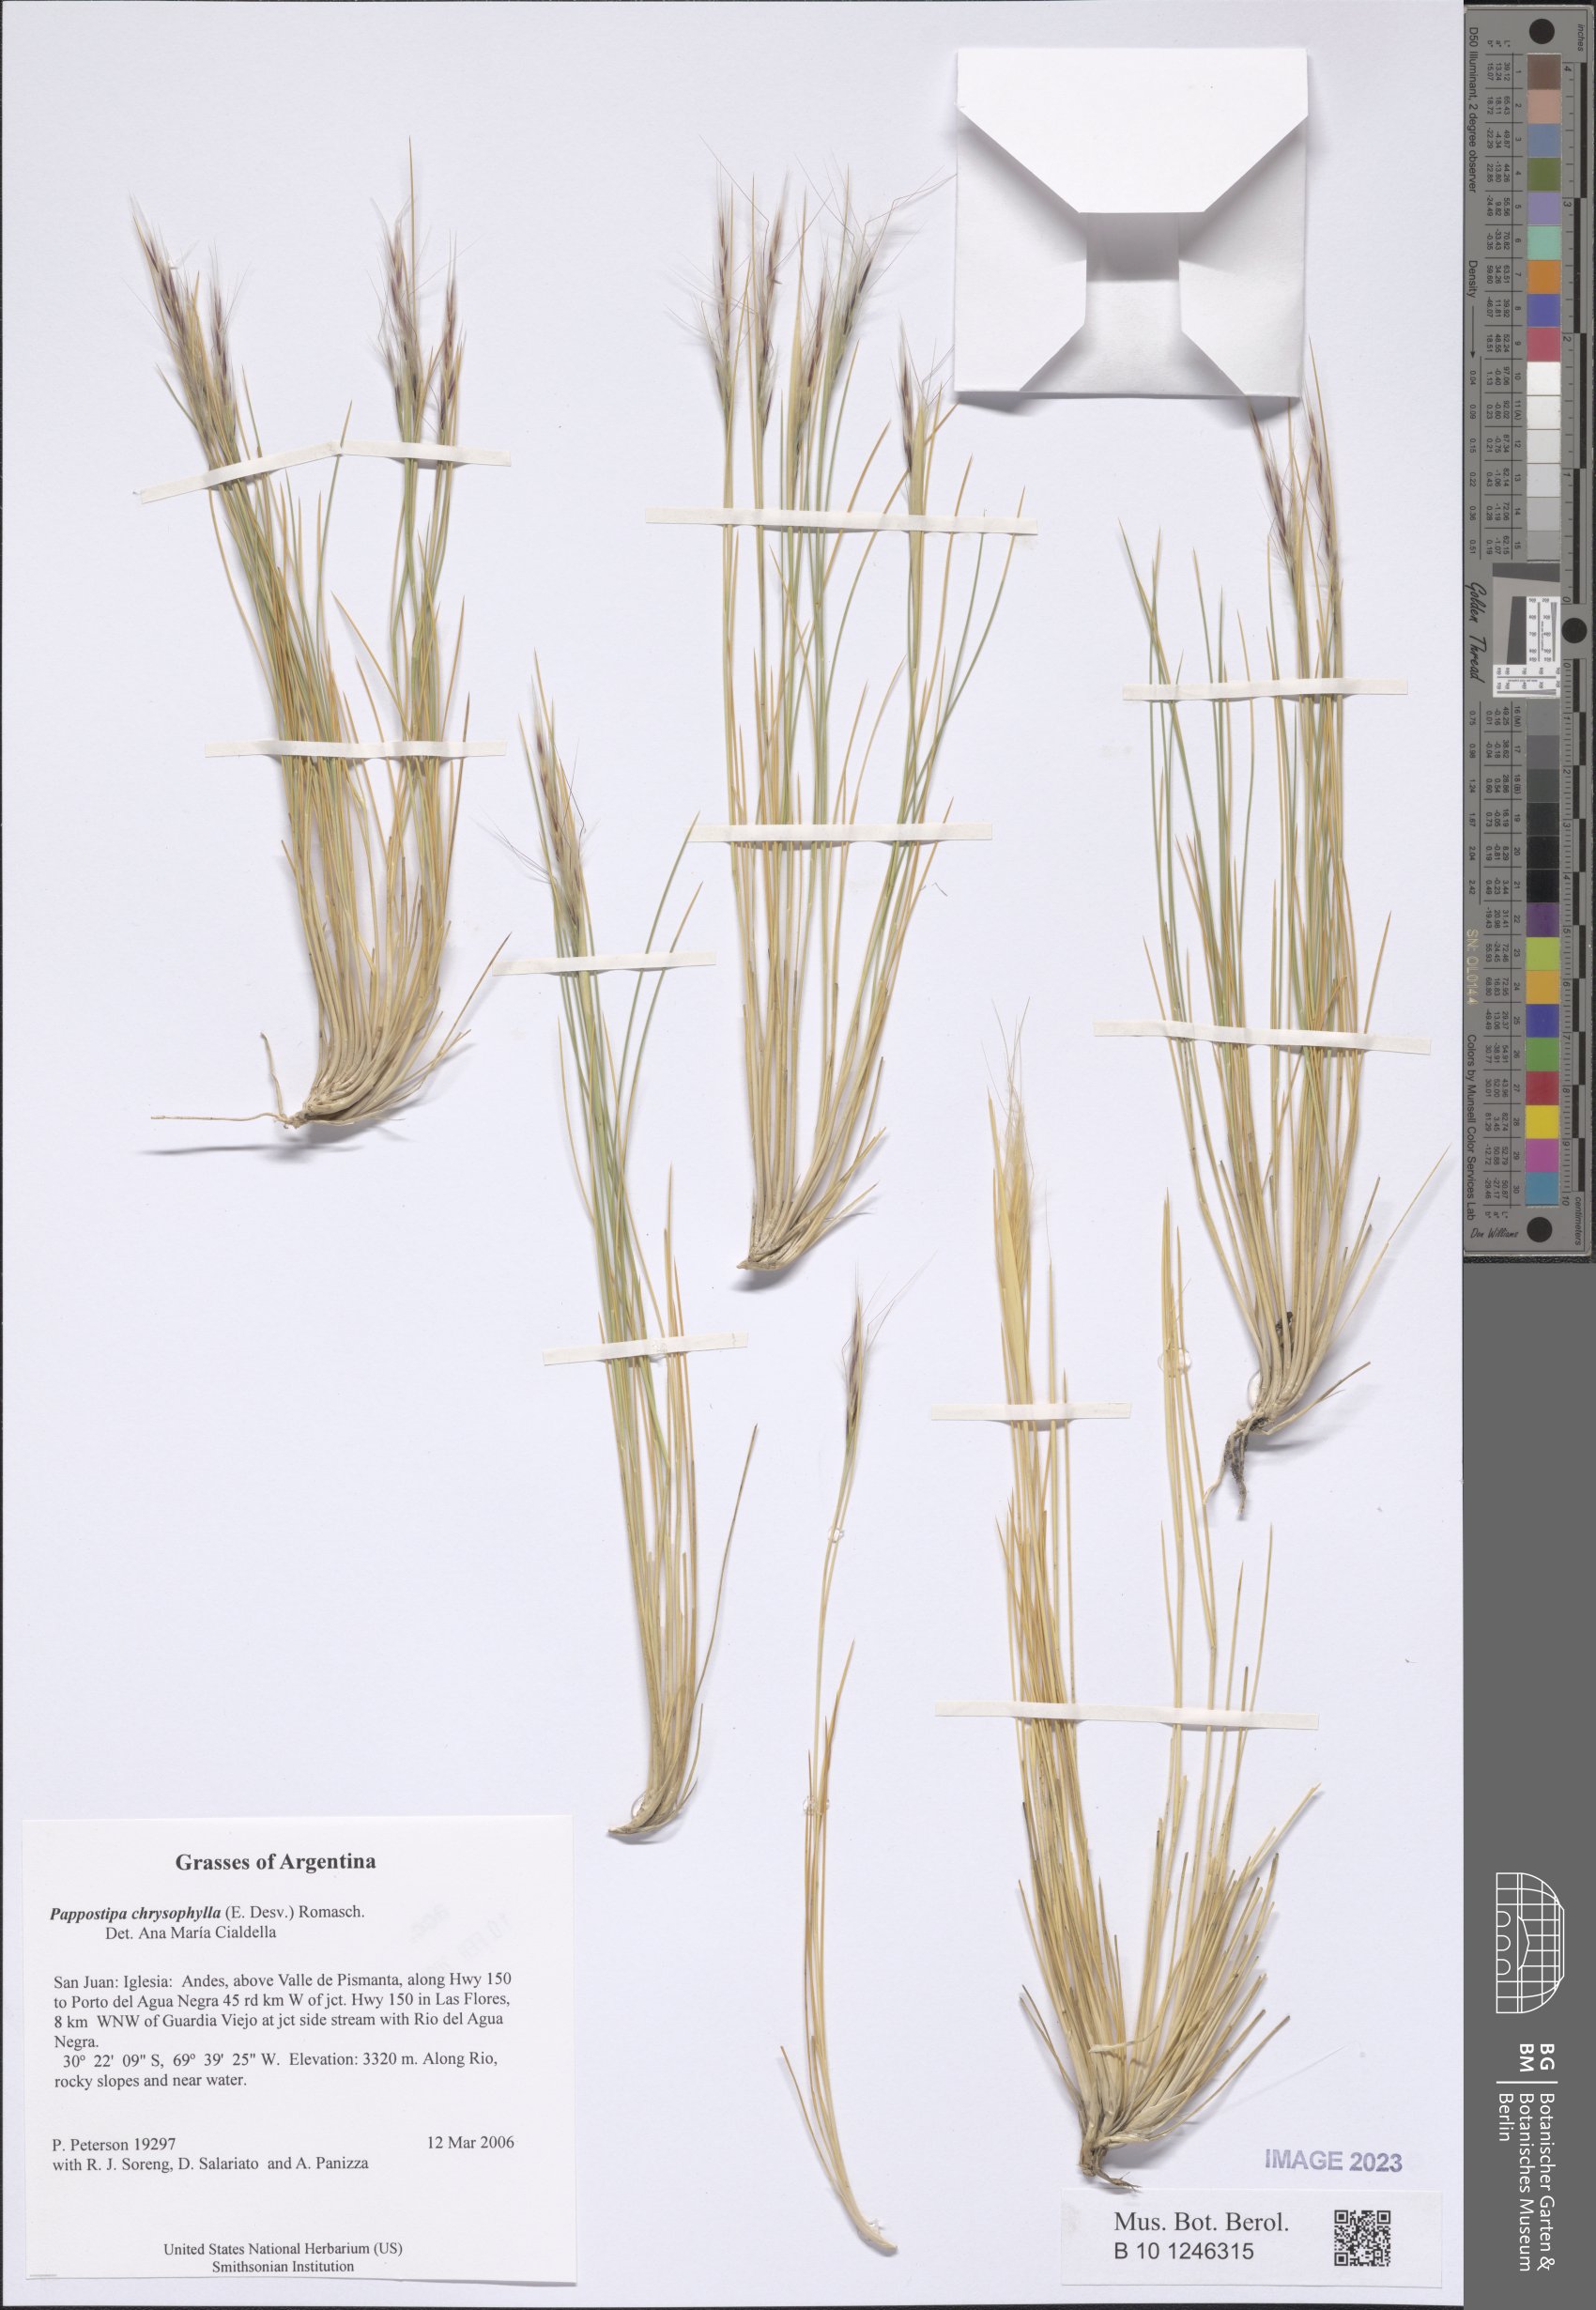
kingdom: Plantae
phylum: Tracheophyta
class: Liliopsida
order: Poales
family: Poaceae
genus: Pappostipa
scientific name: Pappostipa chrysophylla
